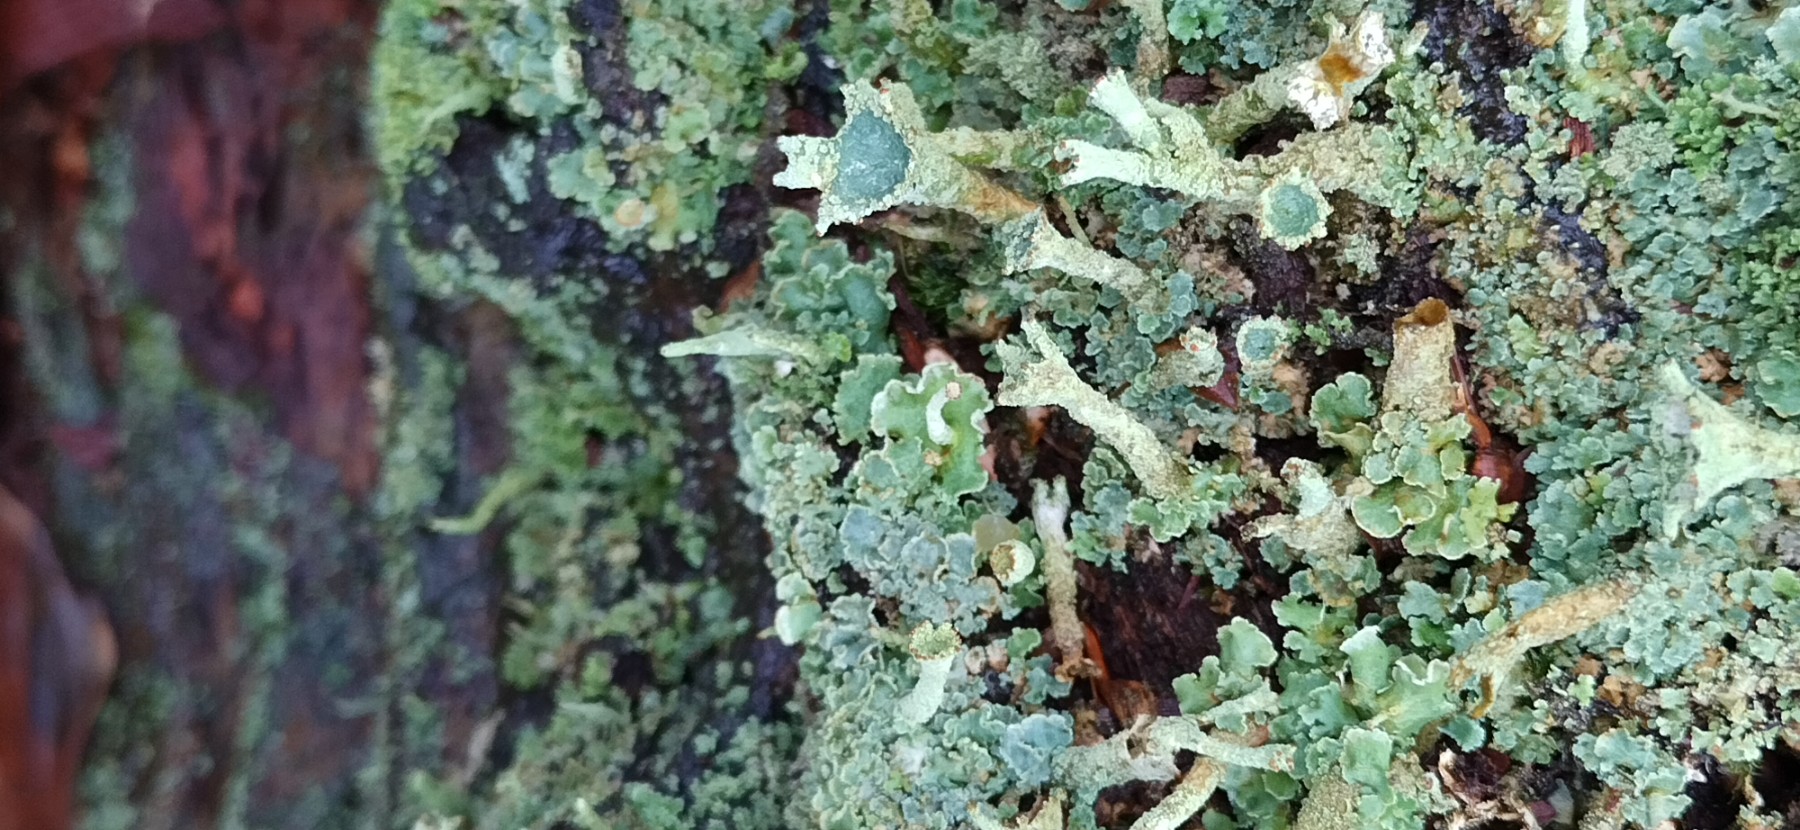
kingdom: Fungi
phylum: Ascomycota
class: Lecanoromycetes
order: Lecanorales
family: Cladoniaceae
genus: Cladonia
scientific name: Cladonia digitata
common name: finger-bægerlav
